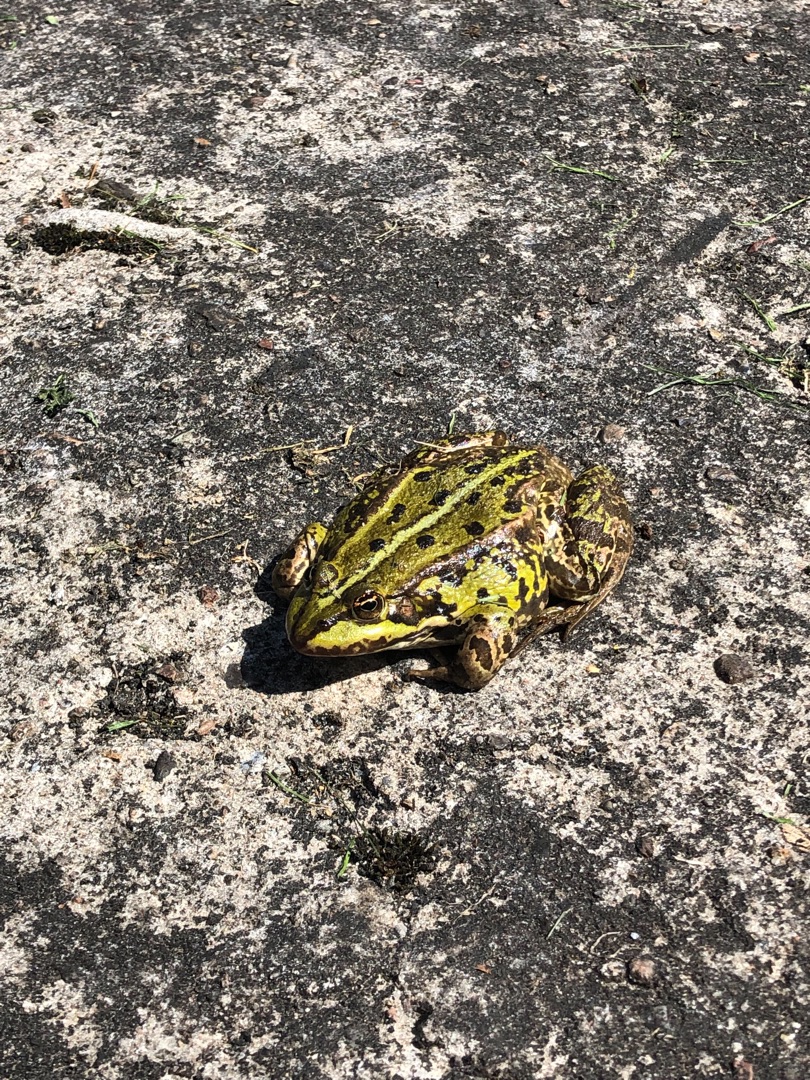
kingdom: Animalia
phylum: Chordata
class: Amphibia
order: Anura
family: Ranidae
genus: Pelophylax
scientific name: Pelophylax lessonae
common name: Grøn frø
